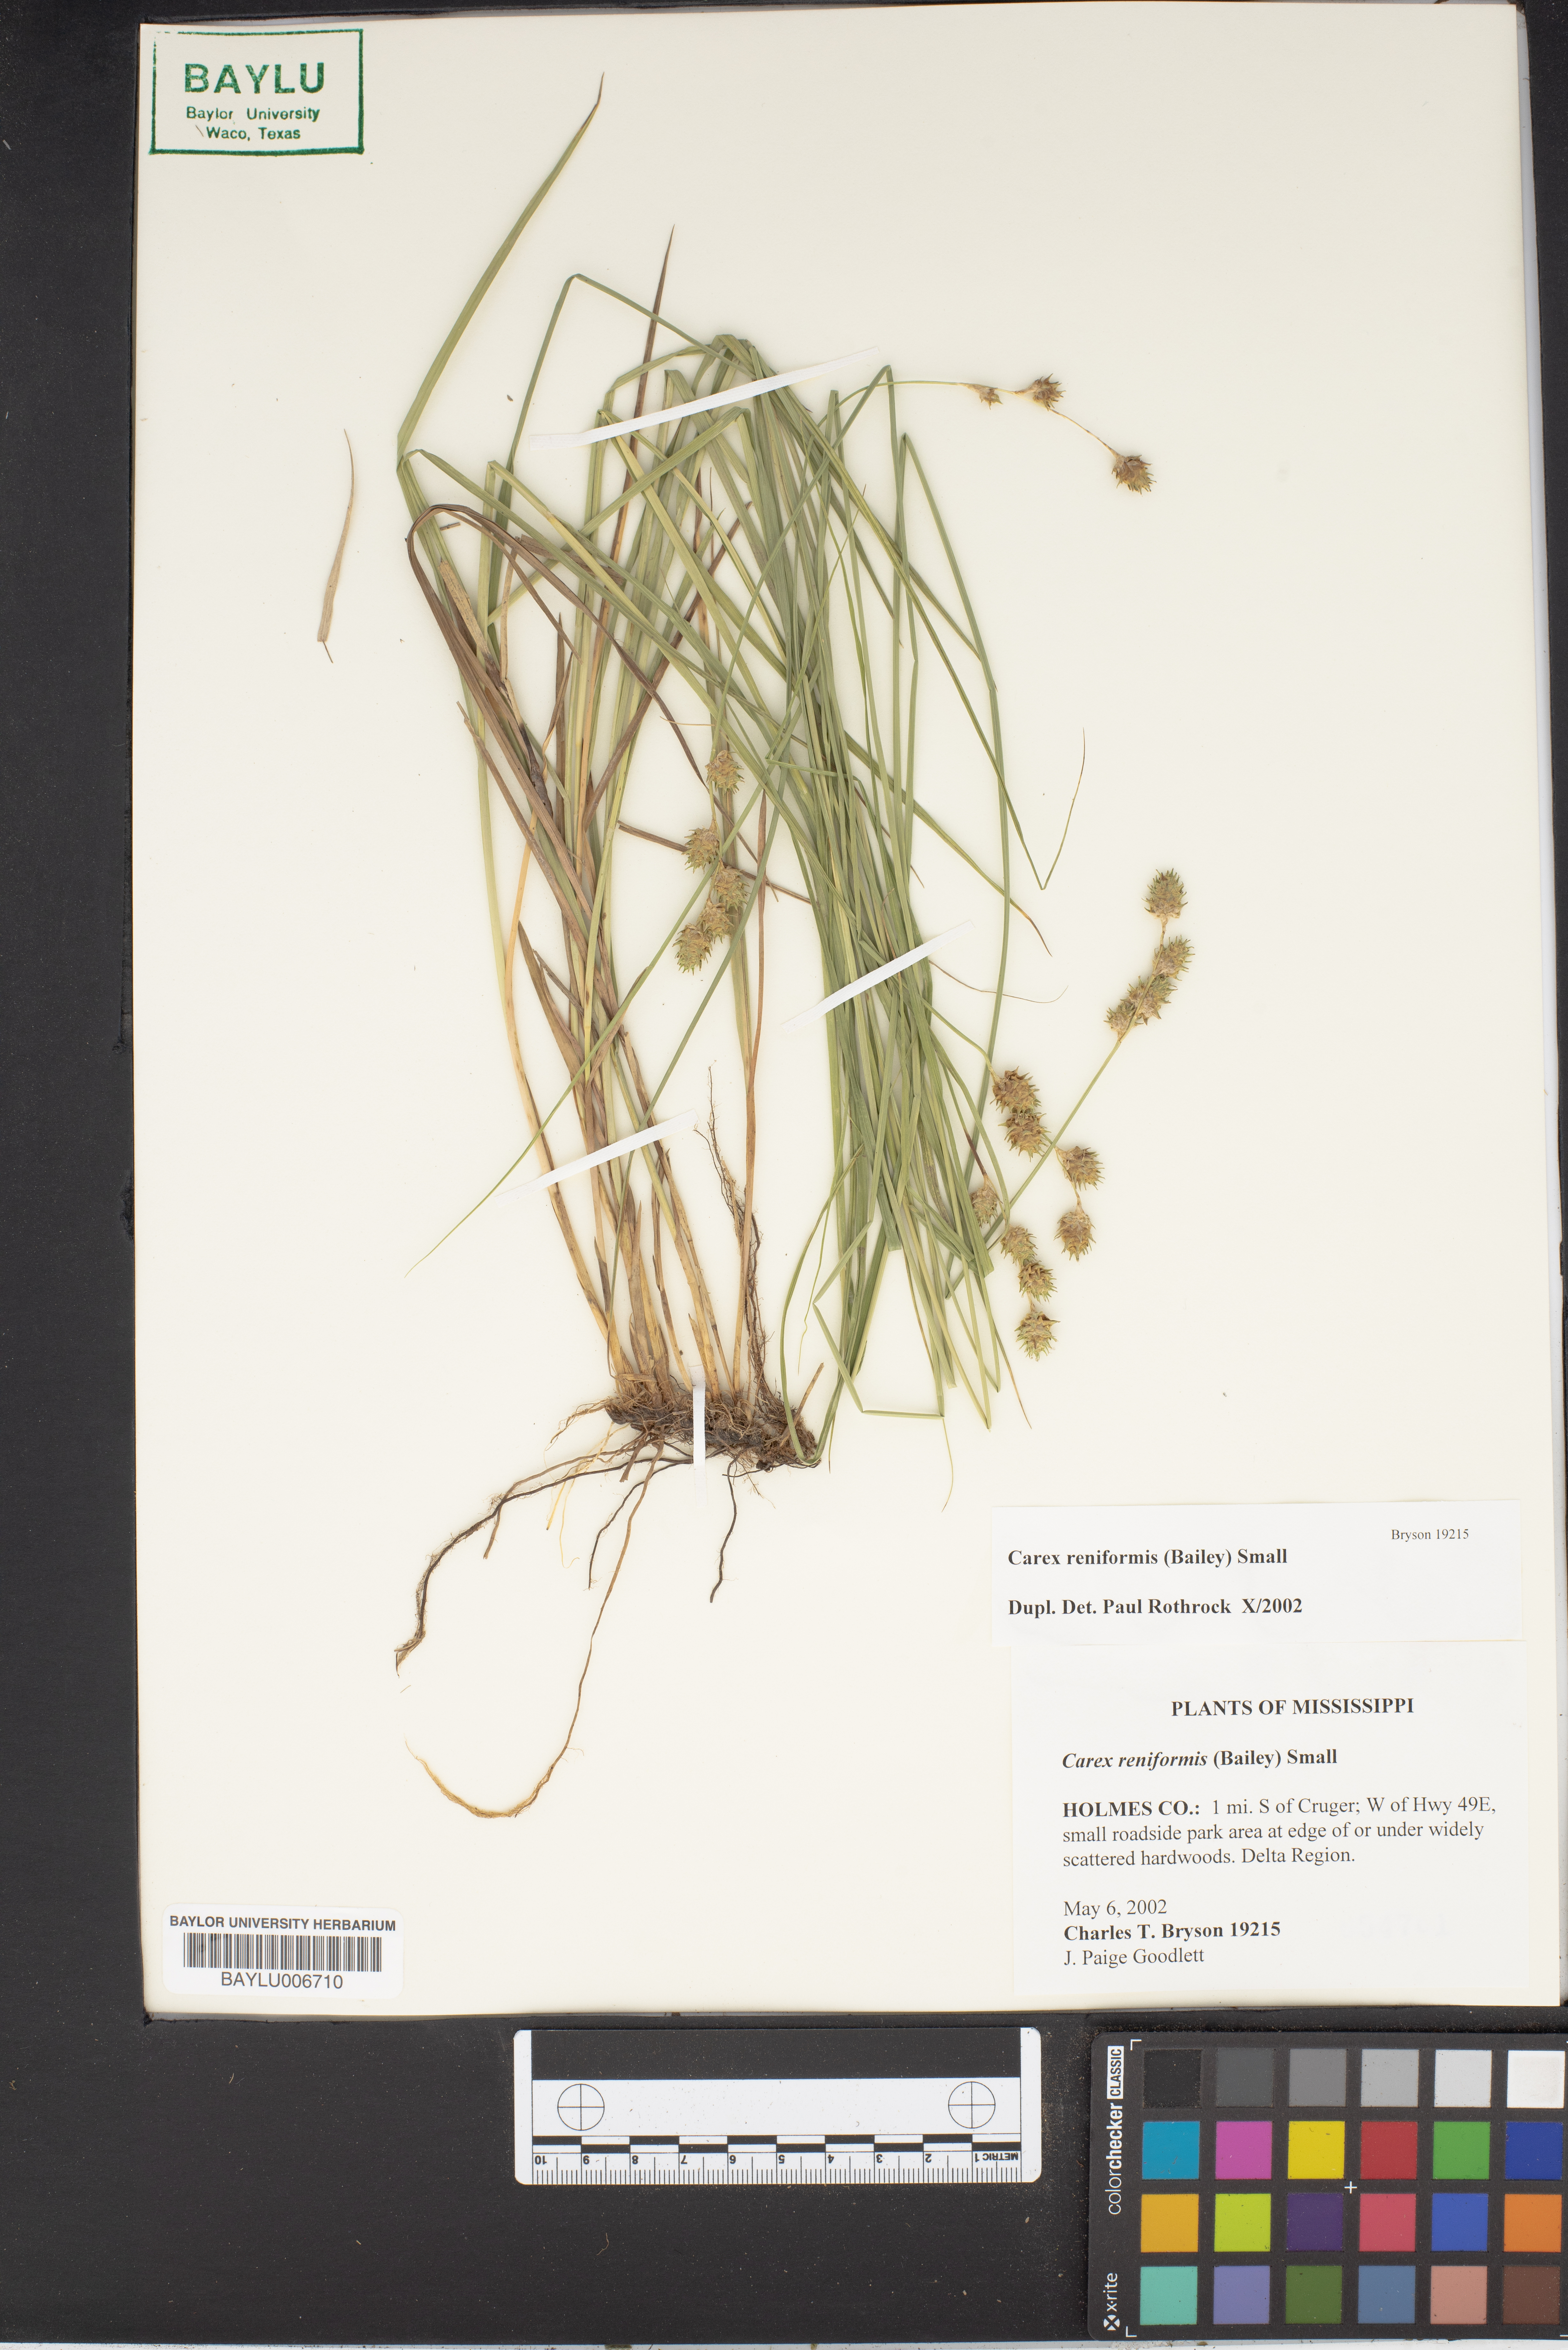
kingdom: Plantae
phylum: Tracheophyta
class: Liliopsida
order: Poales
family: Cyperaceae
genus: Carex
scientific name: Carex reniformis
